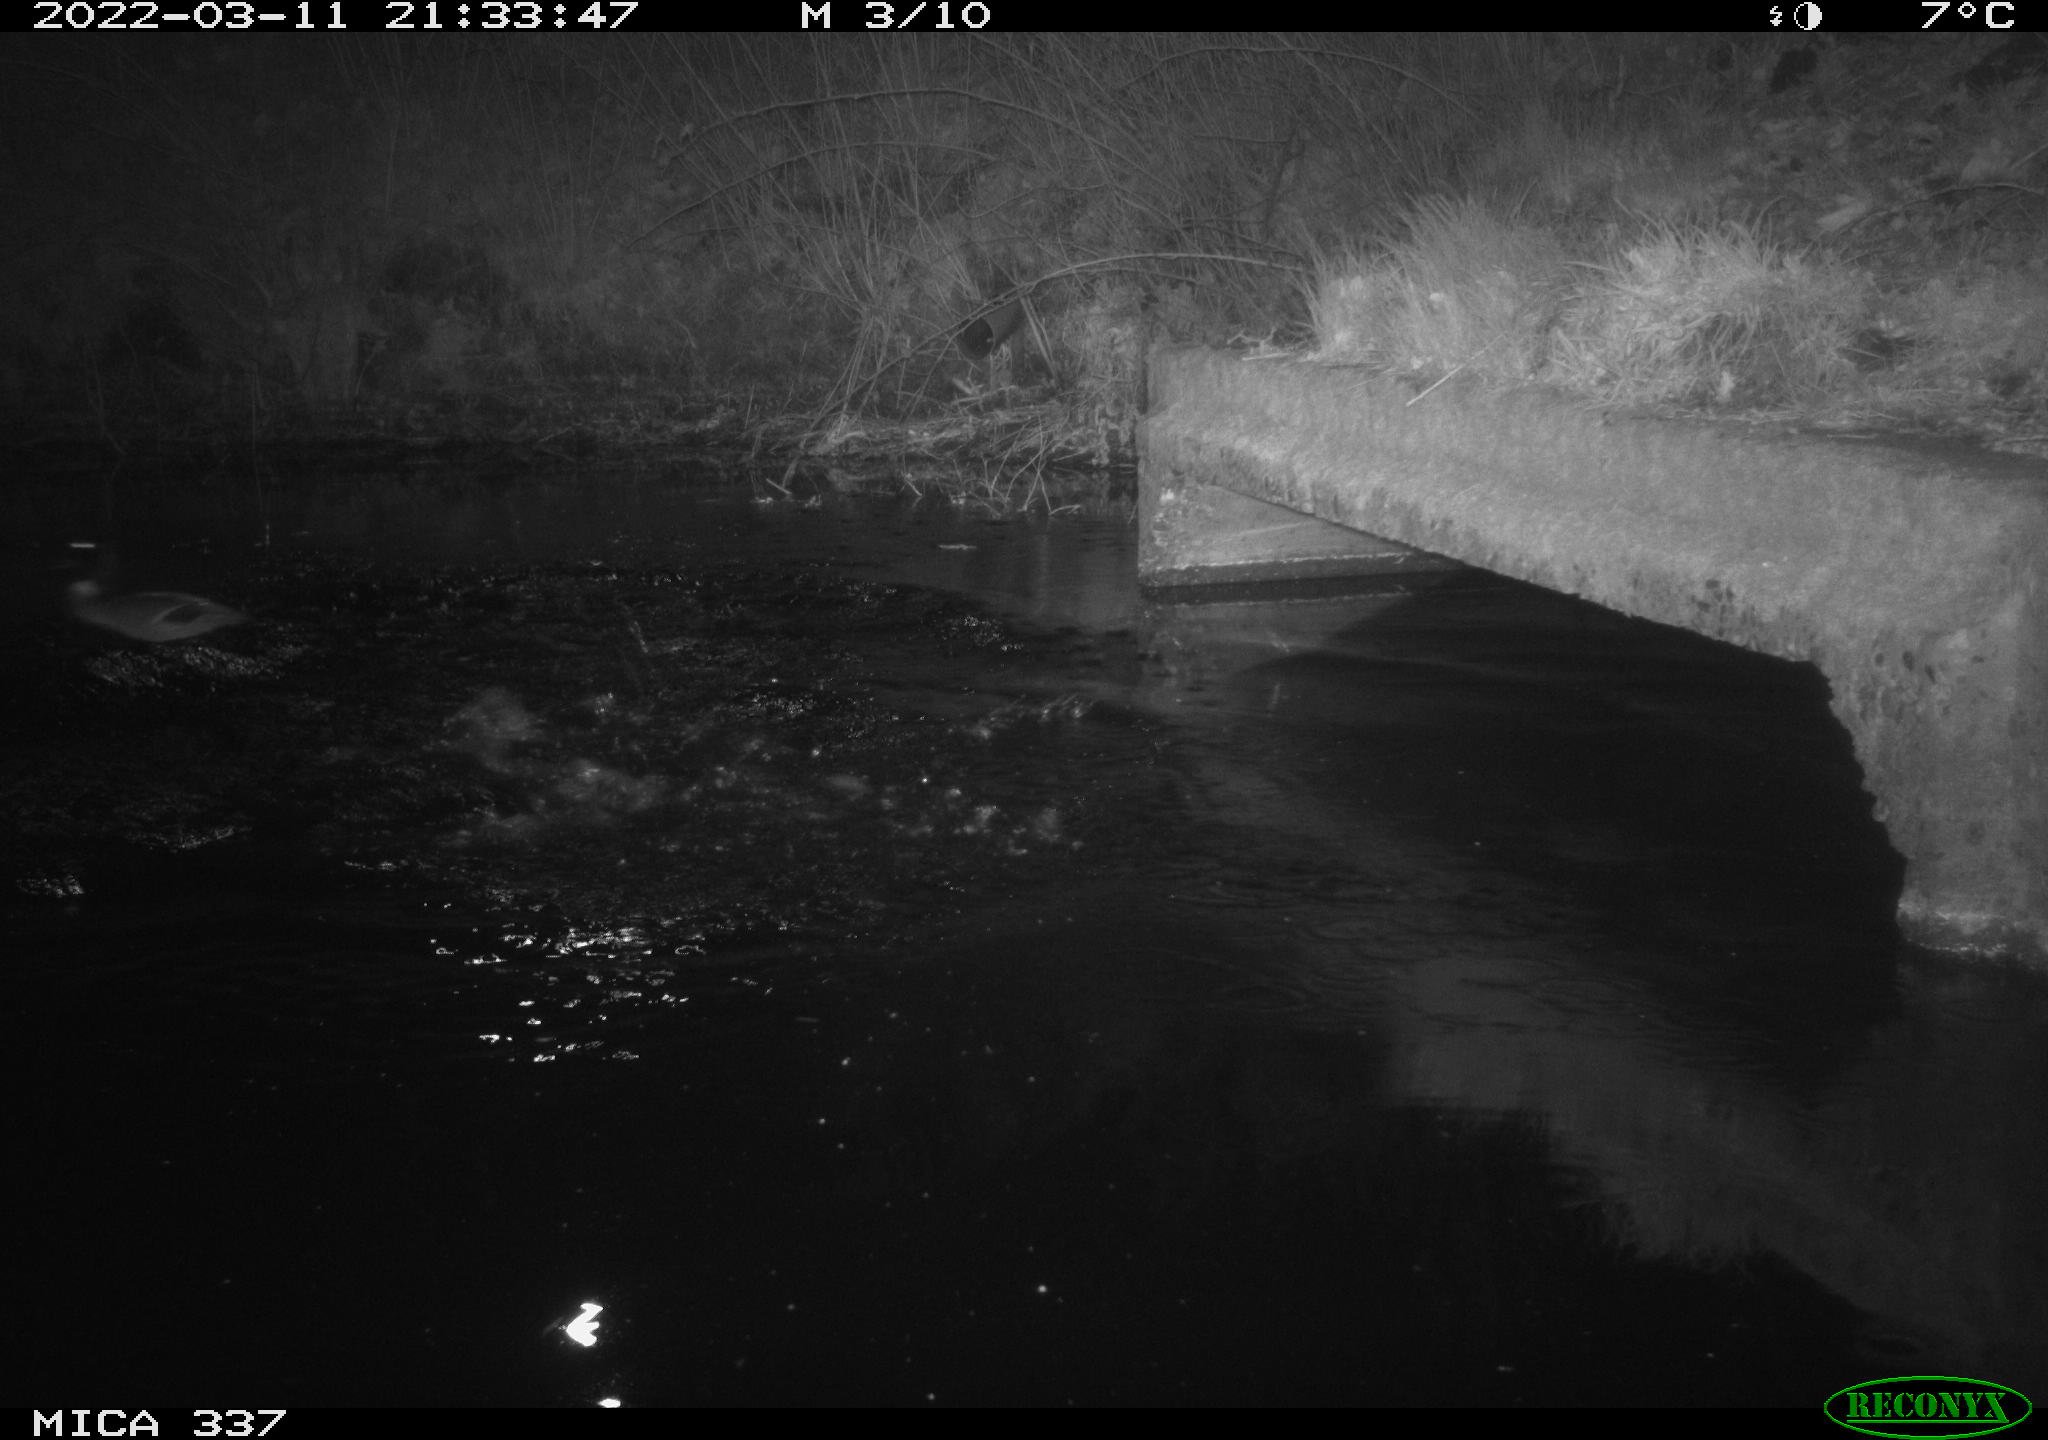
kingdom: Animalia
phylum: Chordata
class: Aves
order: Anseriformes
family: Anatidae
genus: Anas
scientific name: Anas platyrhynchos
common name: Mallard
